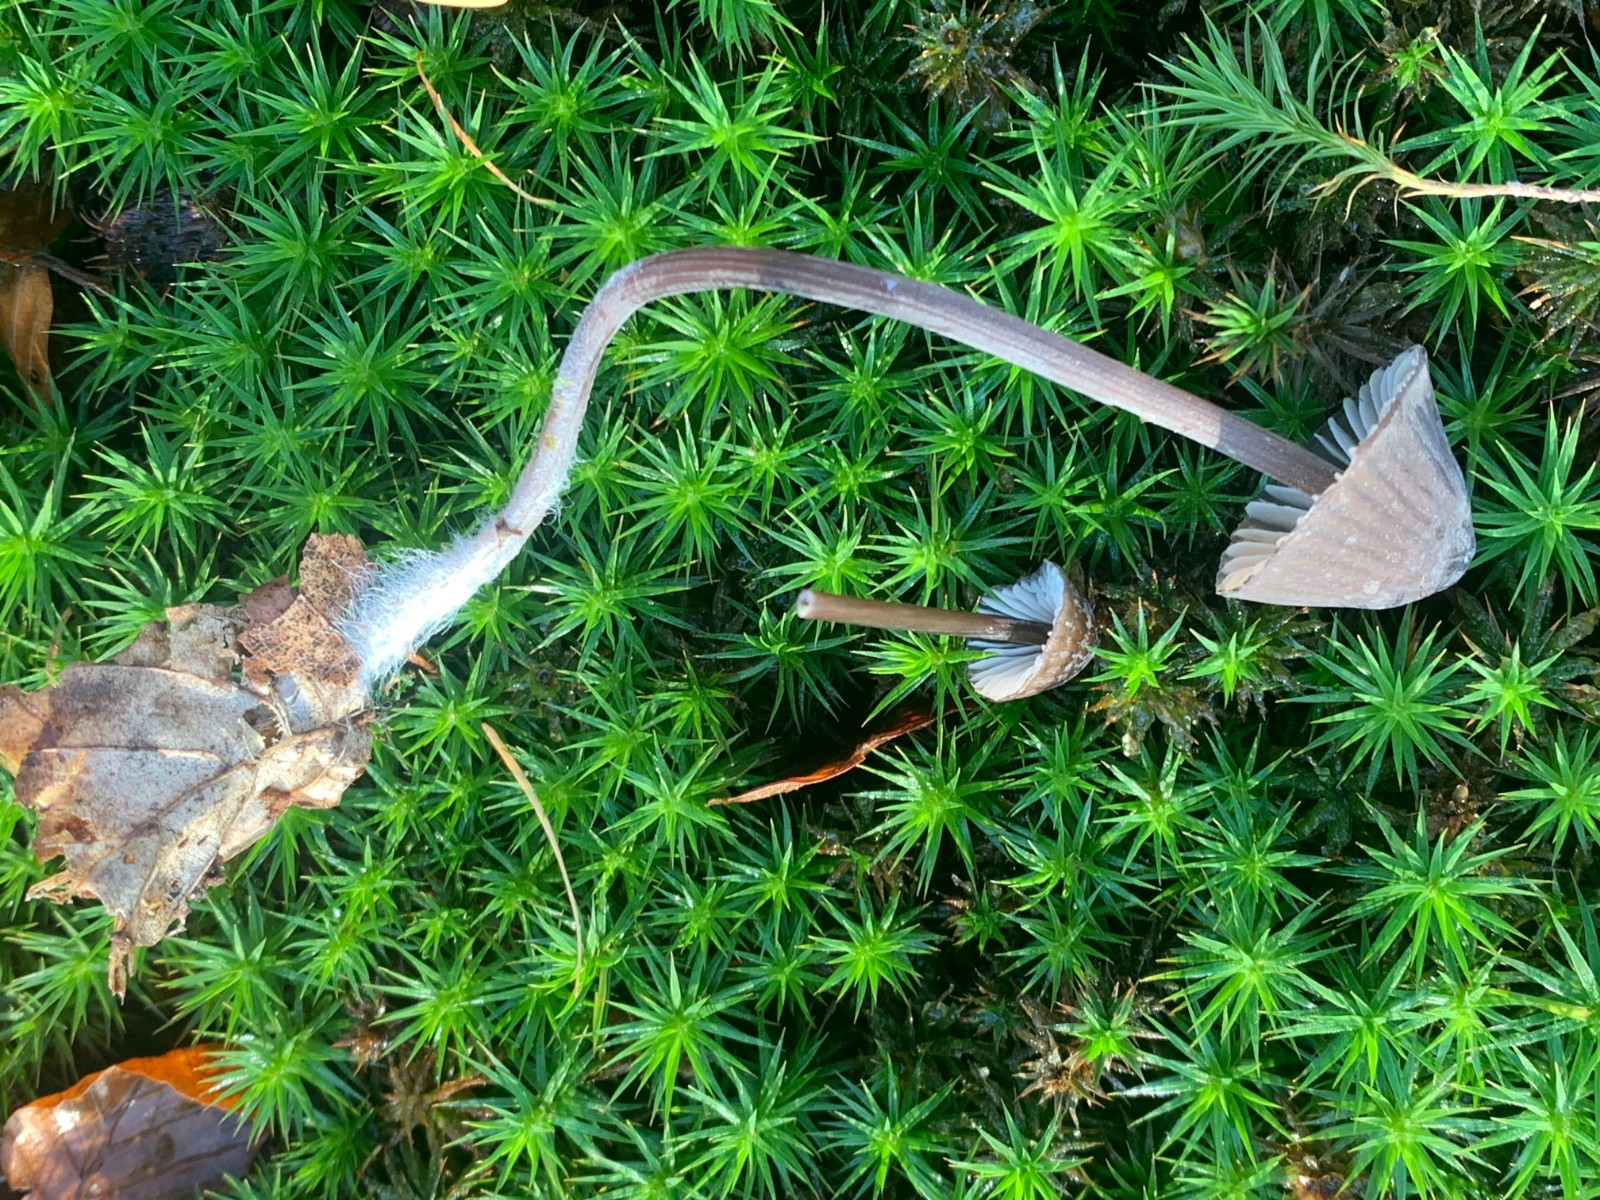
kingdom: Fungi
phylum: Basidiomycota
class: Agaricomycetes
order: Agaricales
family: Mycenaceae
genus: Mycena
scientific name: Mycena galopus
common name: hvidmælket huesvamp
